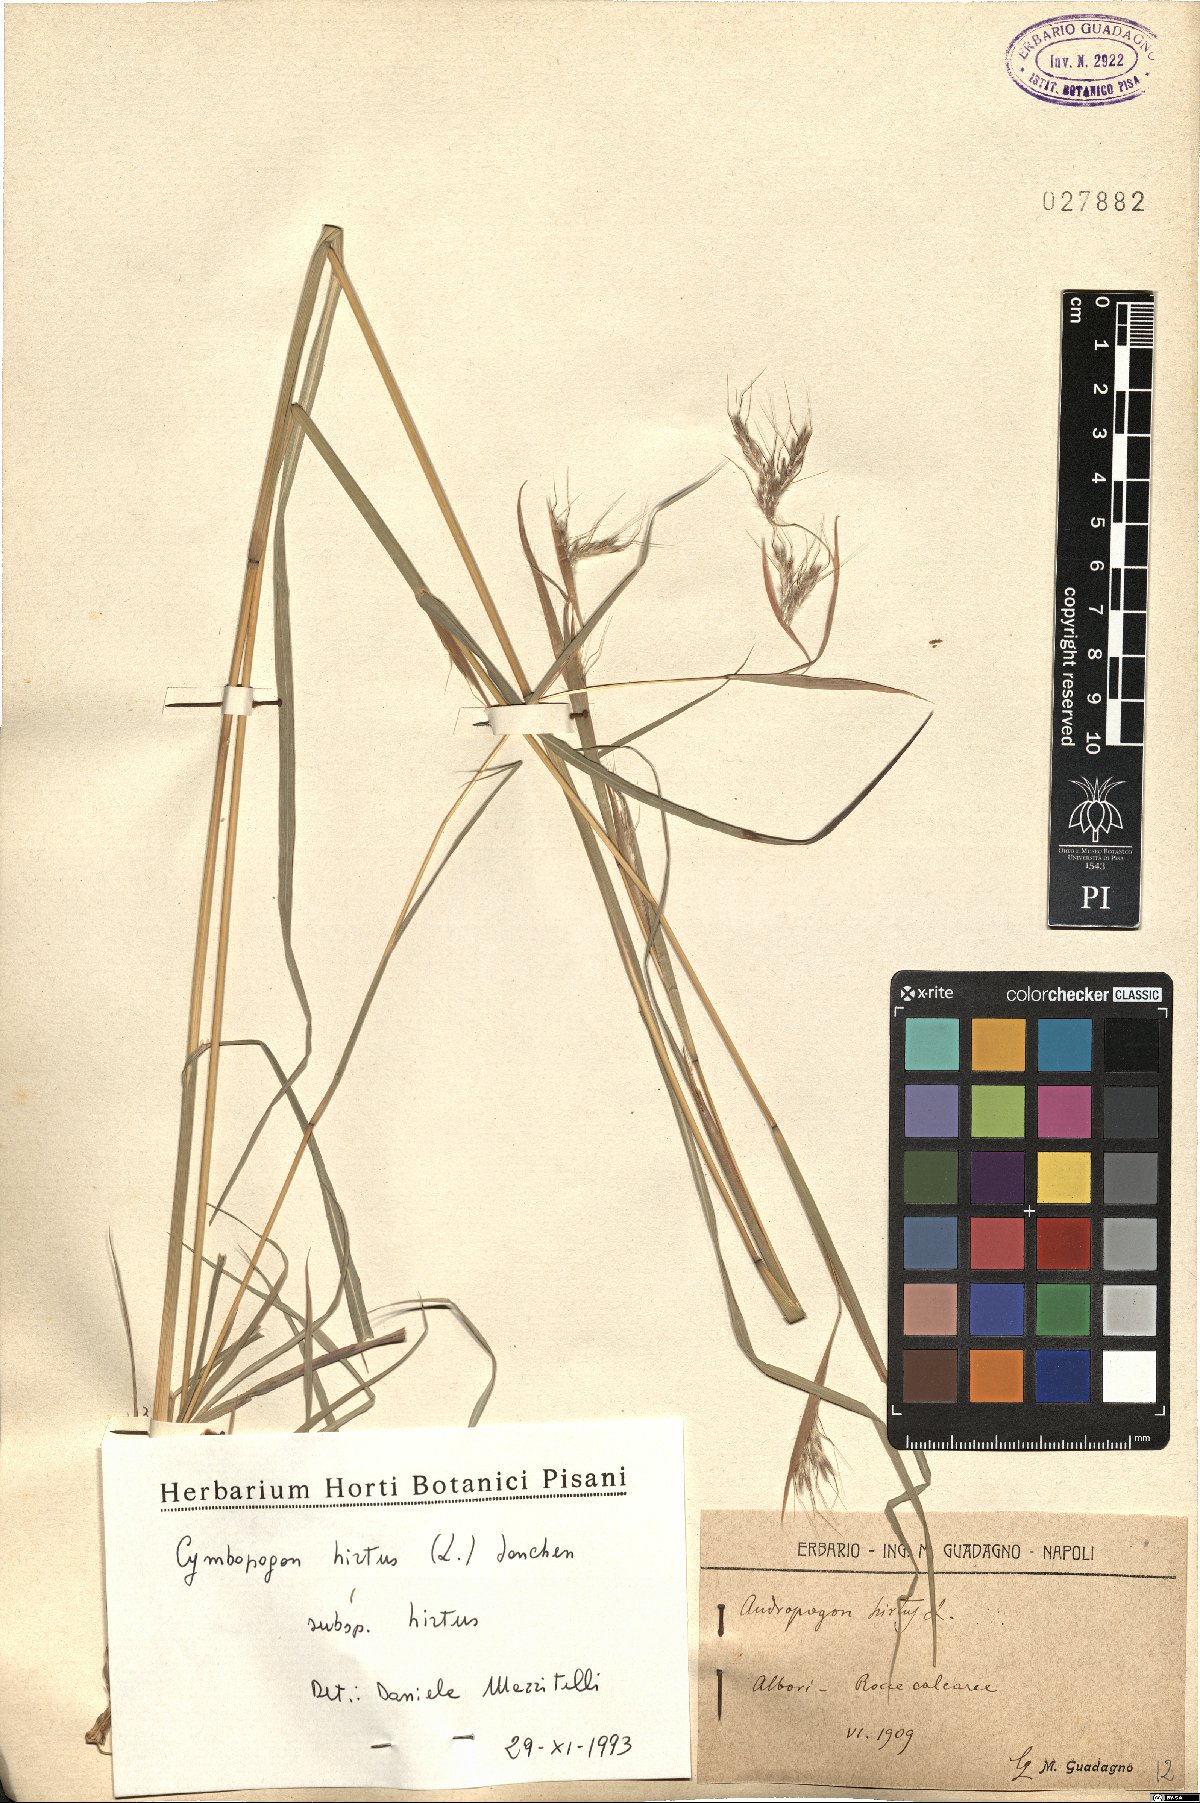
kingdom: Plantae
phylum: Tracheophyta
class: Liliopsida
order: Poales
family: Poaceae
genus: Cymbopogon
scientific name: Cymbopogon hirtus
